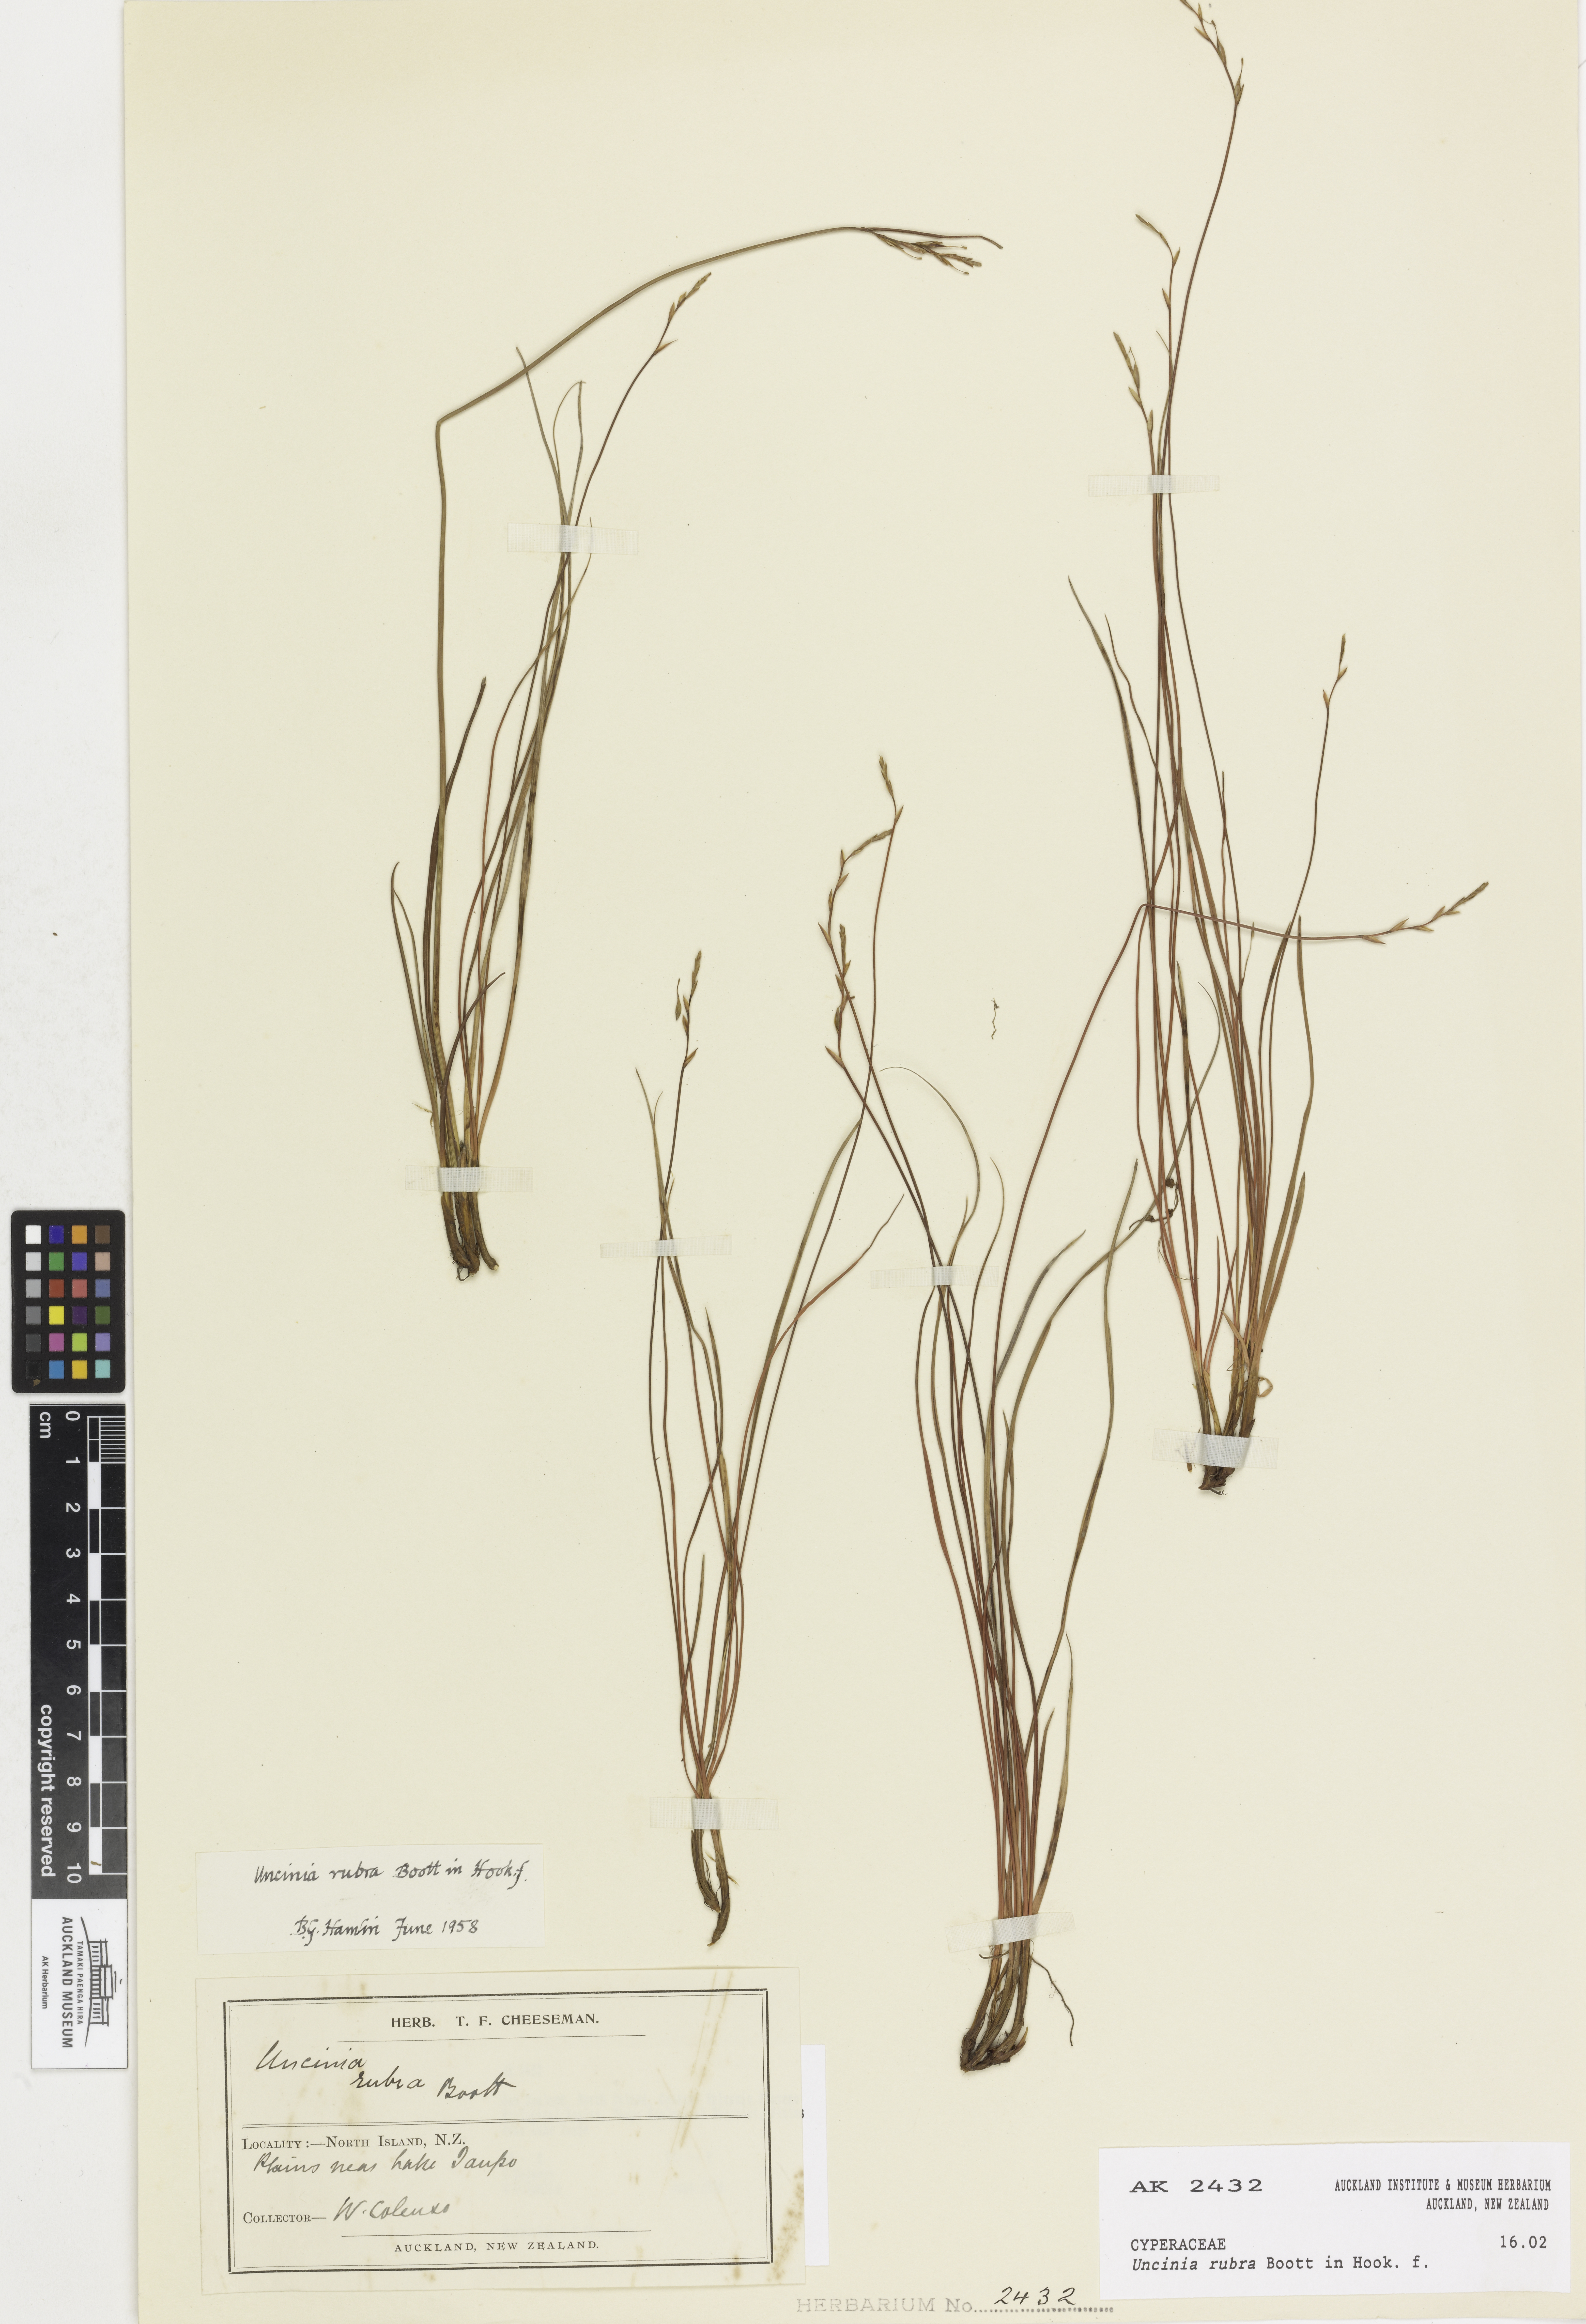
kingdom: Plantae
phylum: Tracheophyta
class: Liliopsida
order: Poales
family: Cyperaceae
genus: Carex
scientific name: Carex punicea
